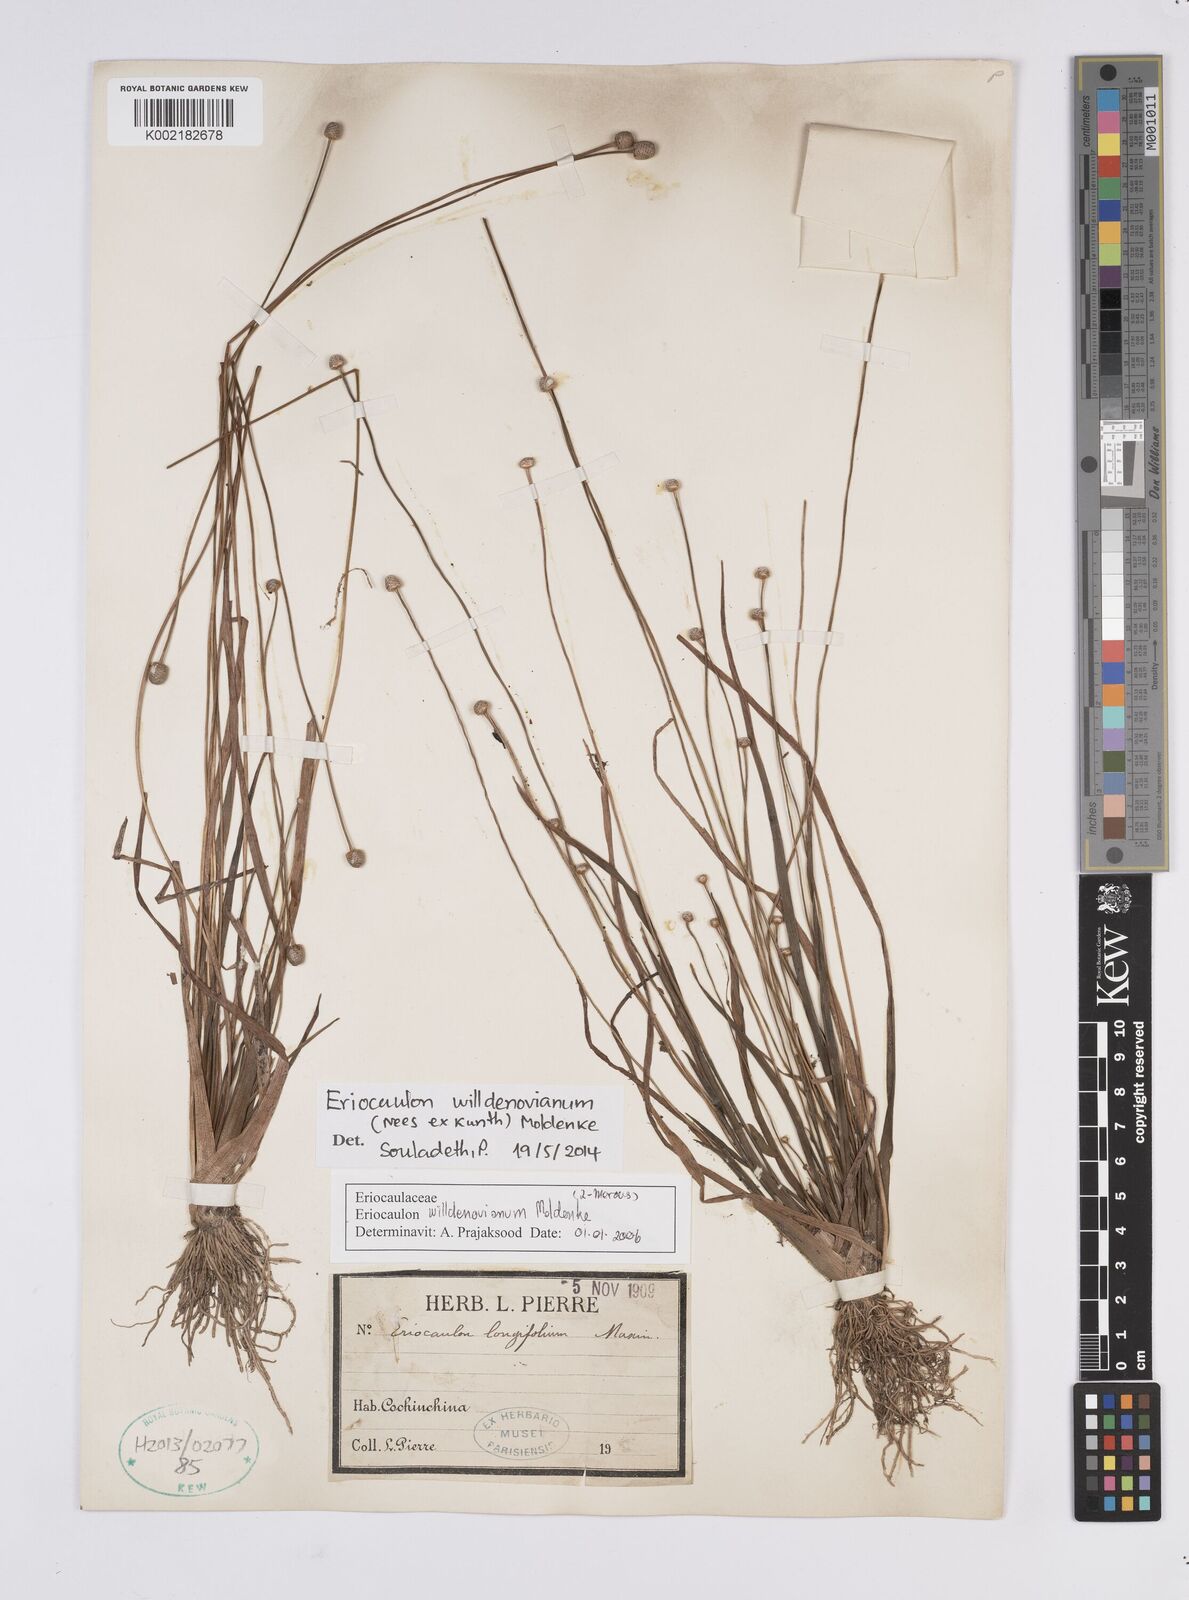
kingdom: Plantae
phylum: Tracheophyta
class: Liliopsida
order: Poales
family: Eriocaulaceae
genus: Eriocaulon
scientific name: Eriocaulon willdenovianum
